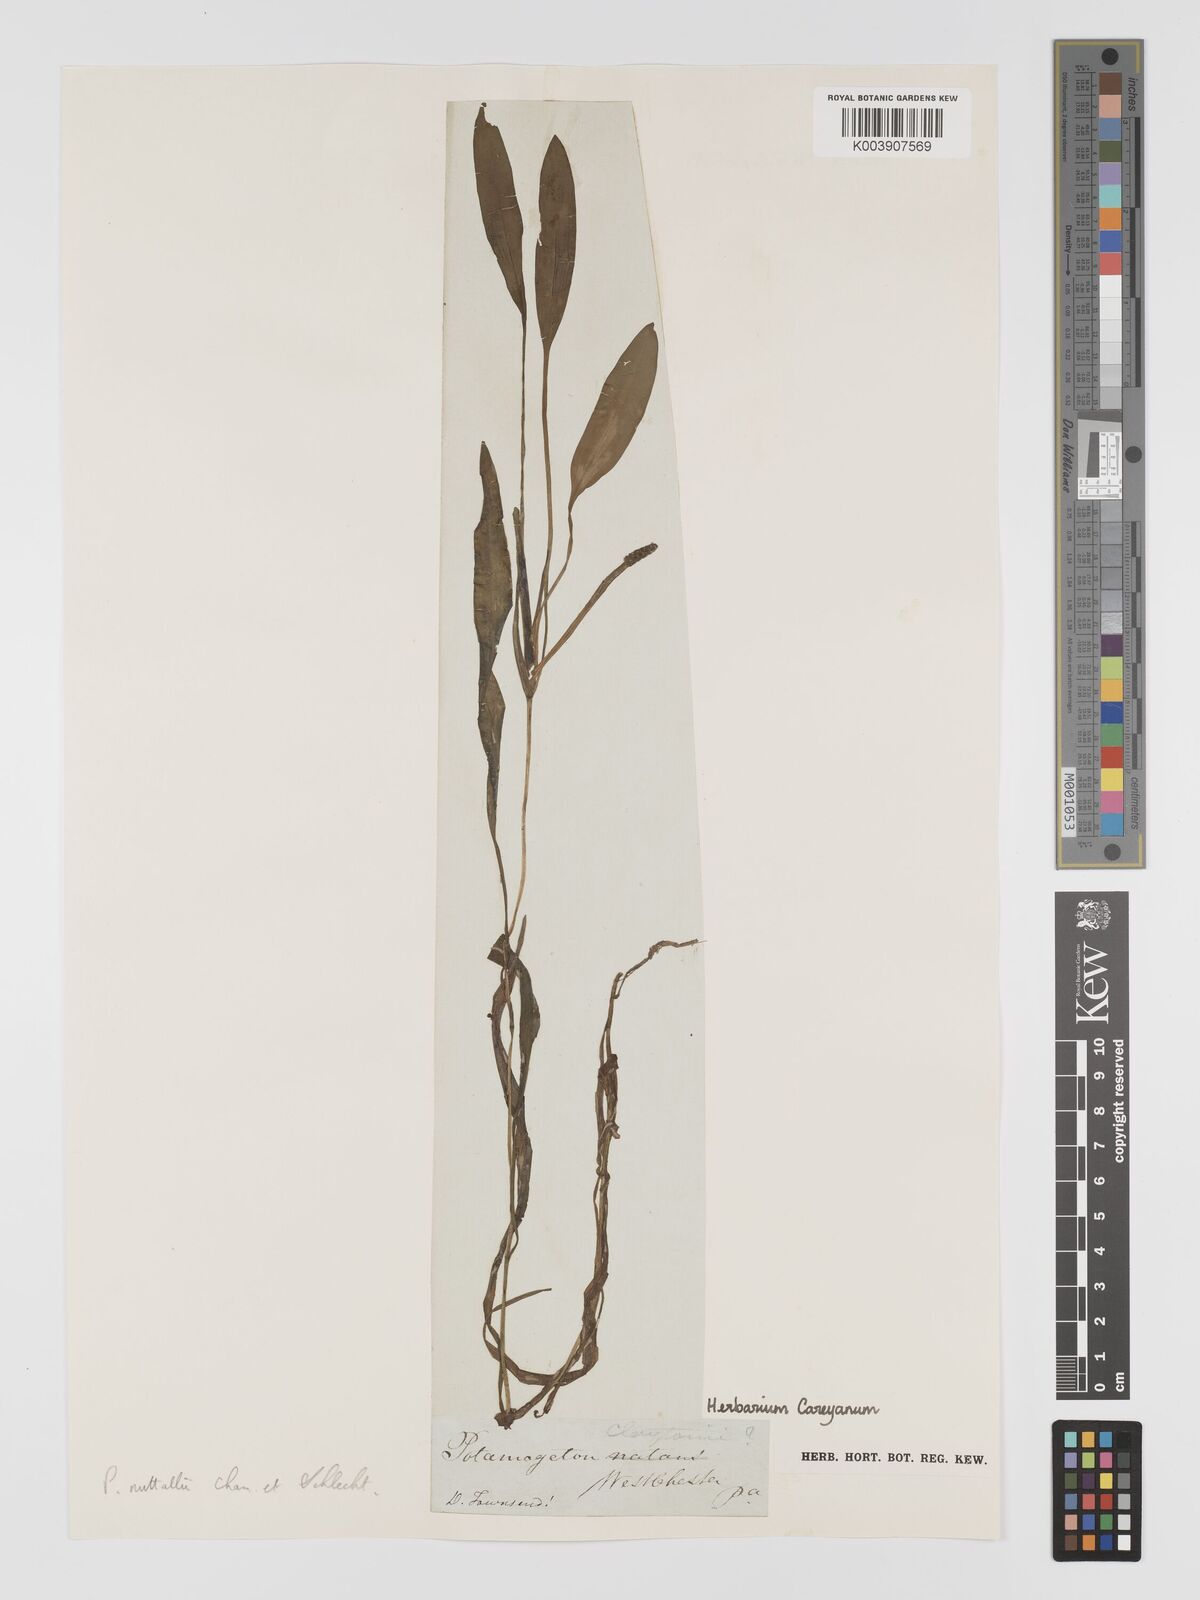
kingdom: Plantae
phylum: Tracheophyta
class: Liliopsida
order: Alismatales
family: Potamogetonaceae
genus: Potamogeton
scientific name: Potamogeton epihydrus
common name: American pondweed
